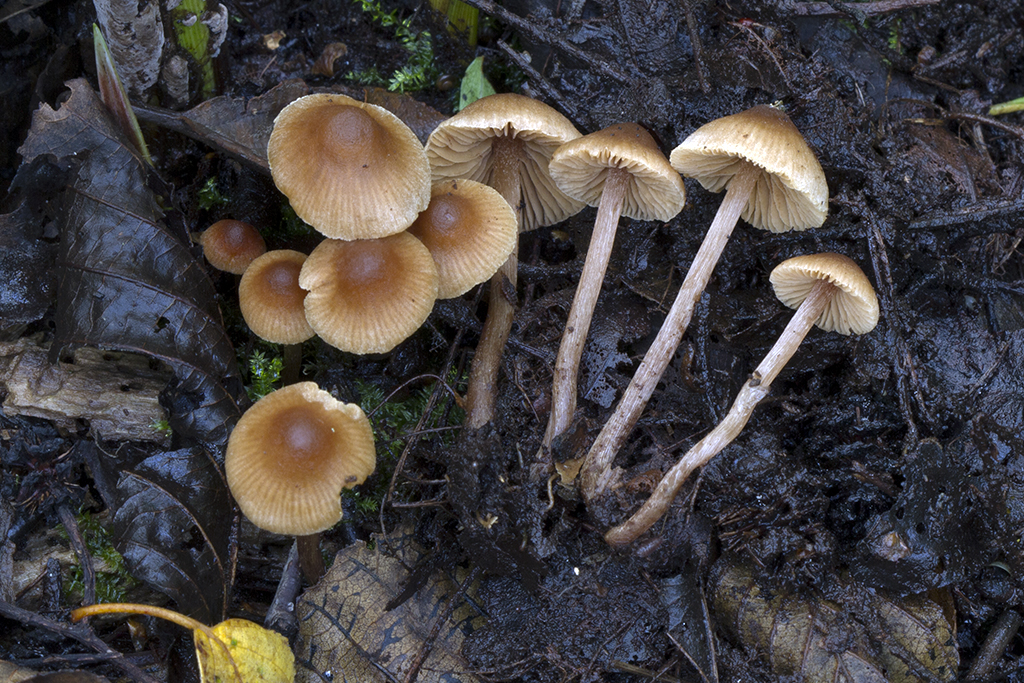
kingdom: Fungi
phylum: Basidiomycota
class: Agaricomycetes
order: Agaricales
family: Hymenogastraceae
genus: Naucoria
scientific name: Naucoria subconspersa
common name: filtet knaphat
